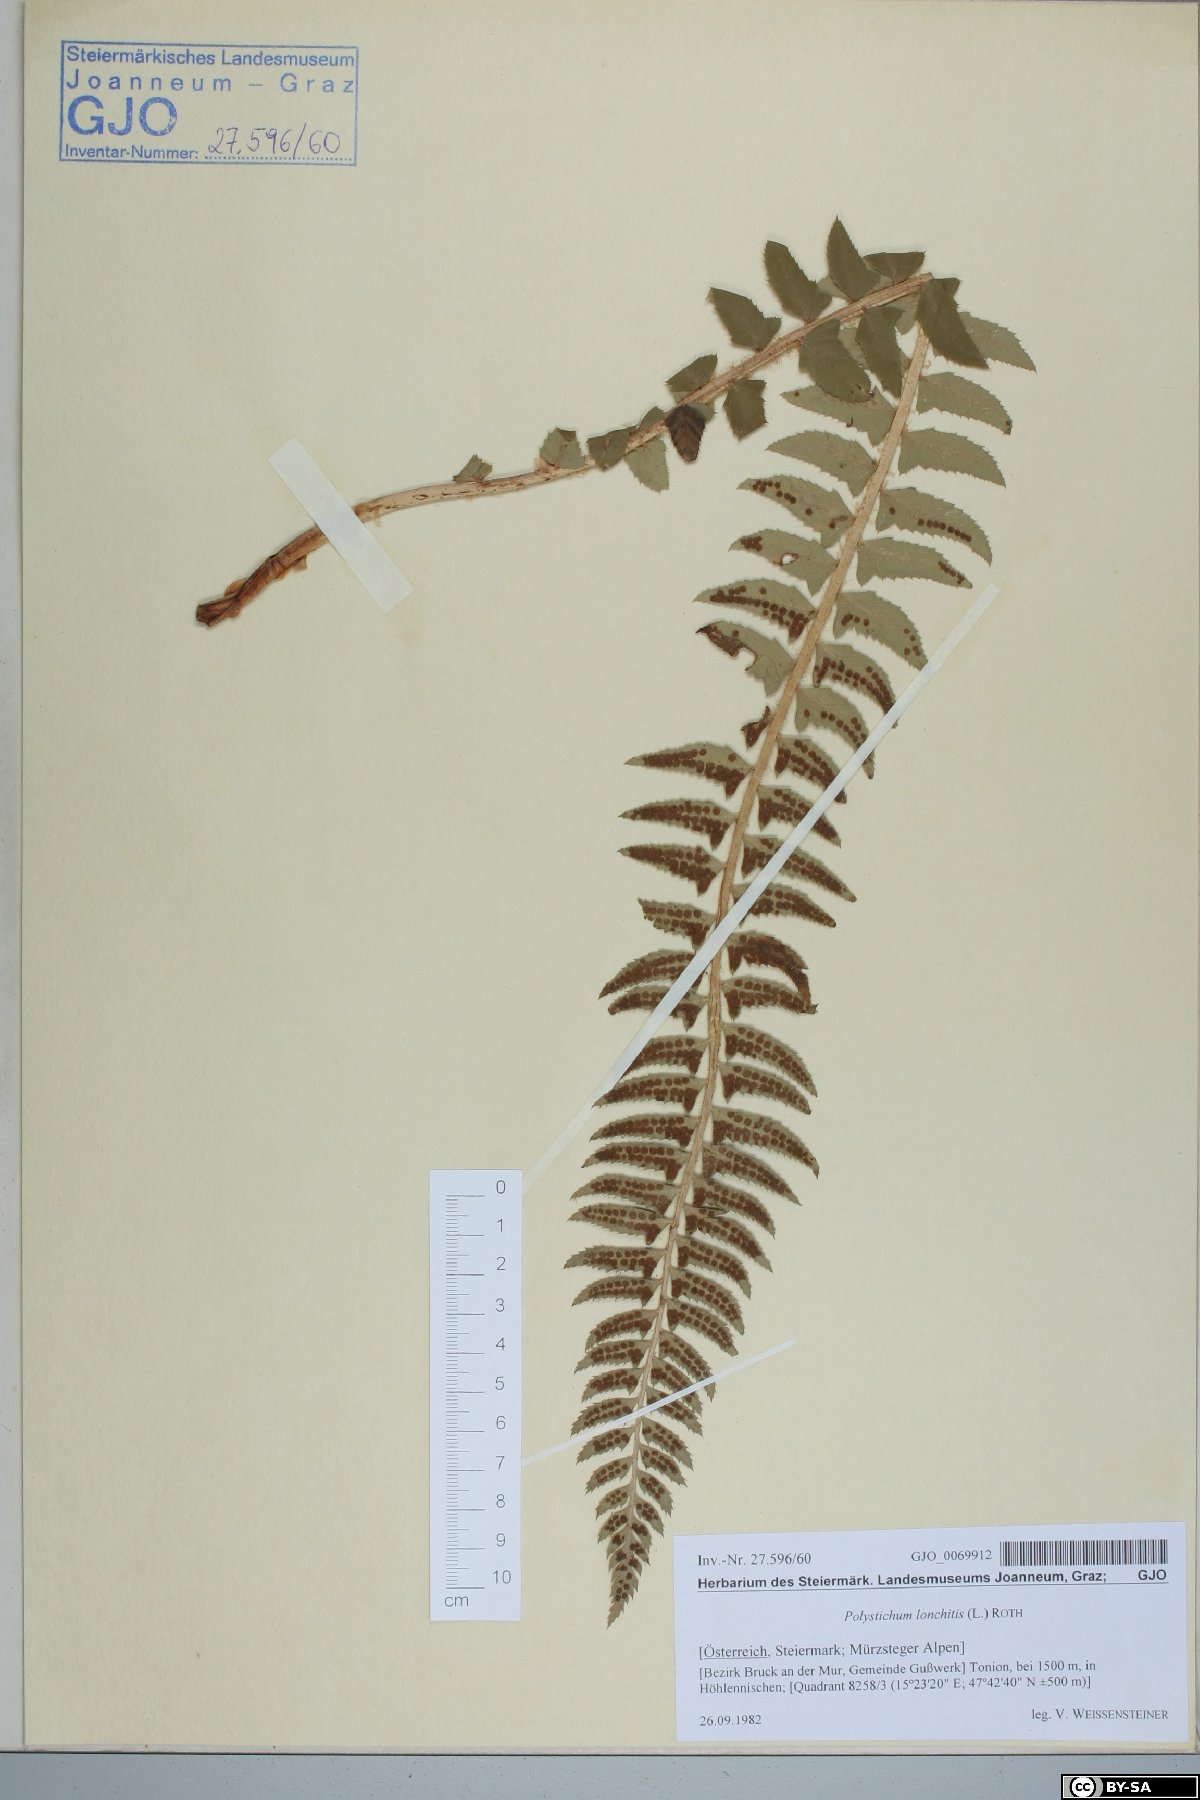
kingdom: Plantae
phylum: Tracheophyta
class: Polypodiopsida
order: Polypodiales
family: Dryopteridaceae
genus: Polystichum
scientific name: Polystichum lonchitis
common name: Holly fern
